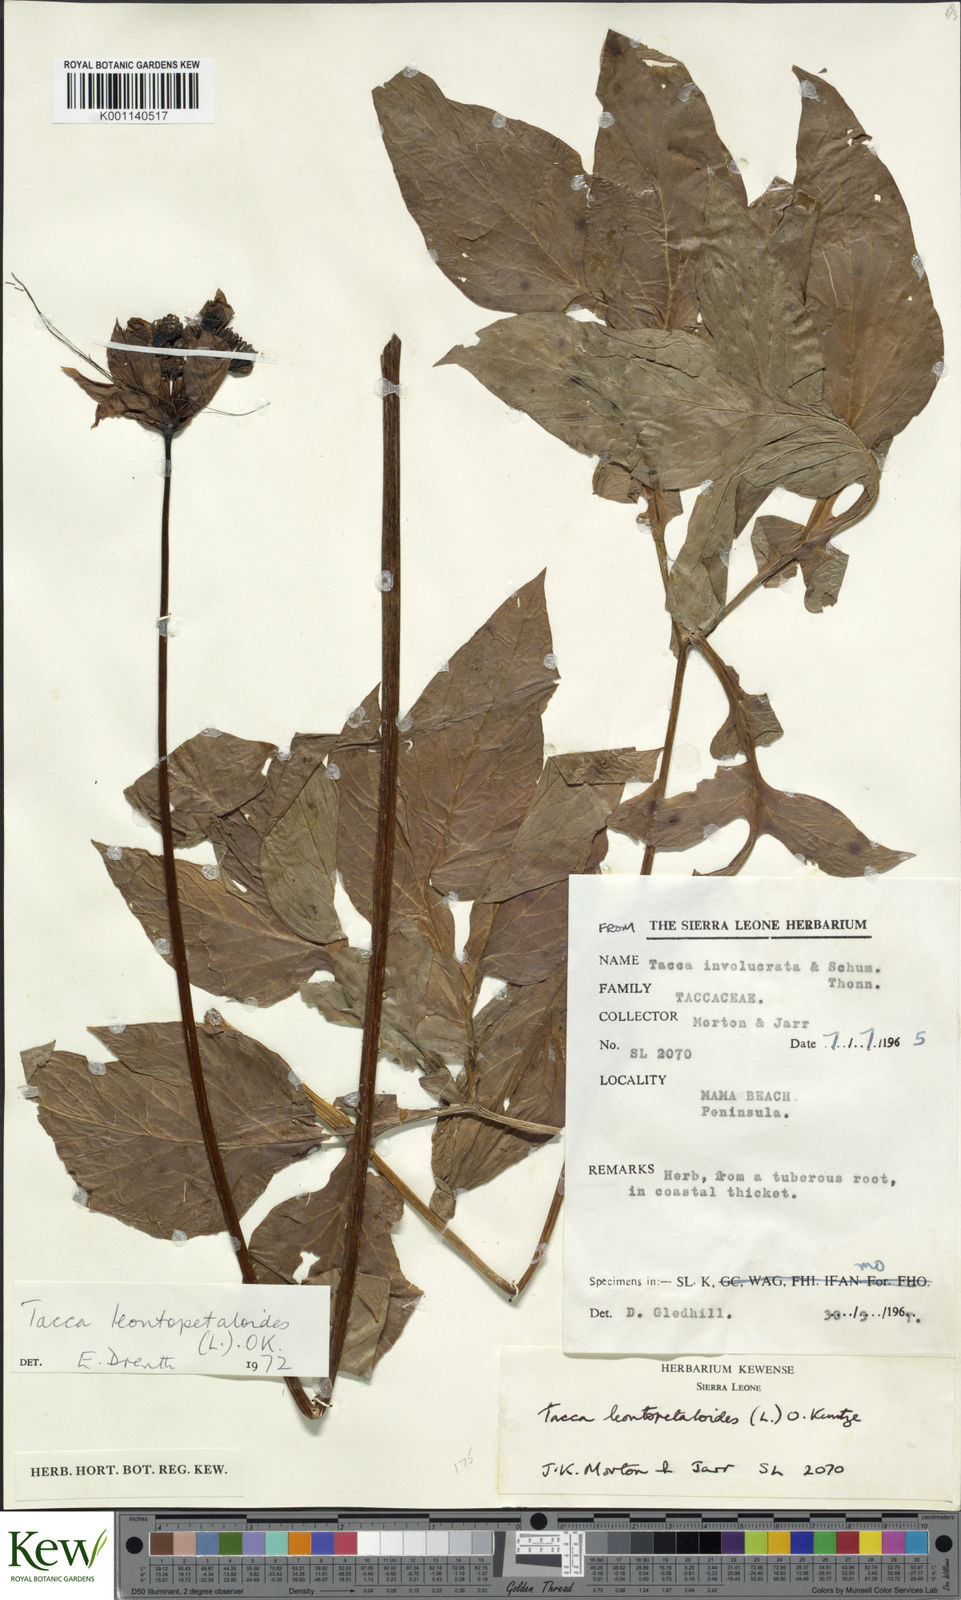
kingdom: Plantae
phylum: Tracheophyta
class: Liliopsida
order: Dioscoreales
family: Dioscoreaceae
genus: Tacca
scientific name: Tacca leontopetaloides
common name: Arrowroot
